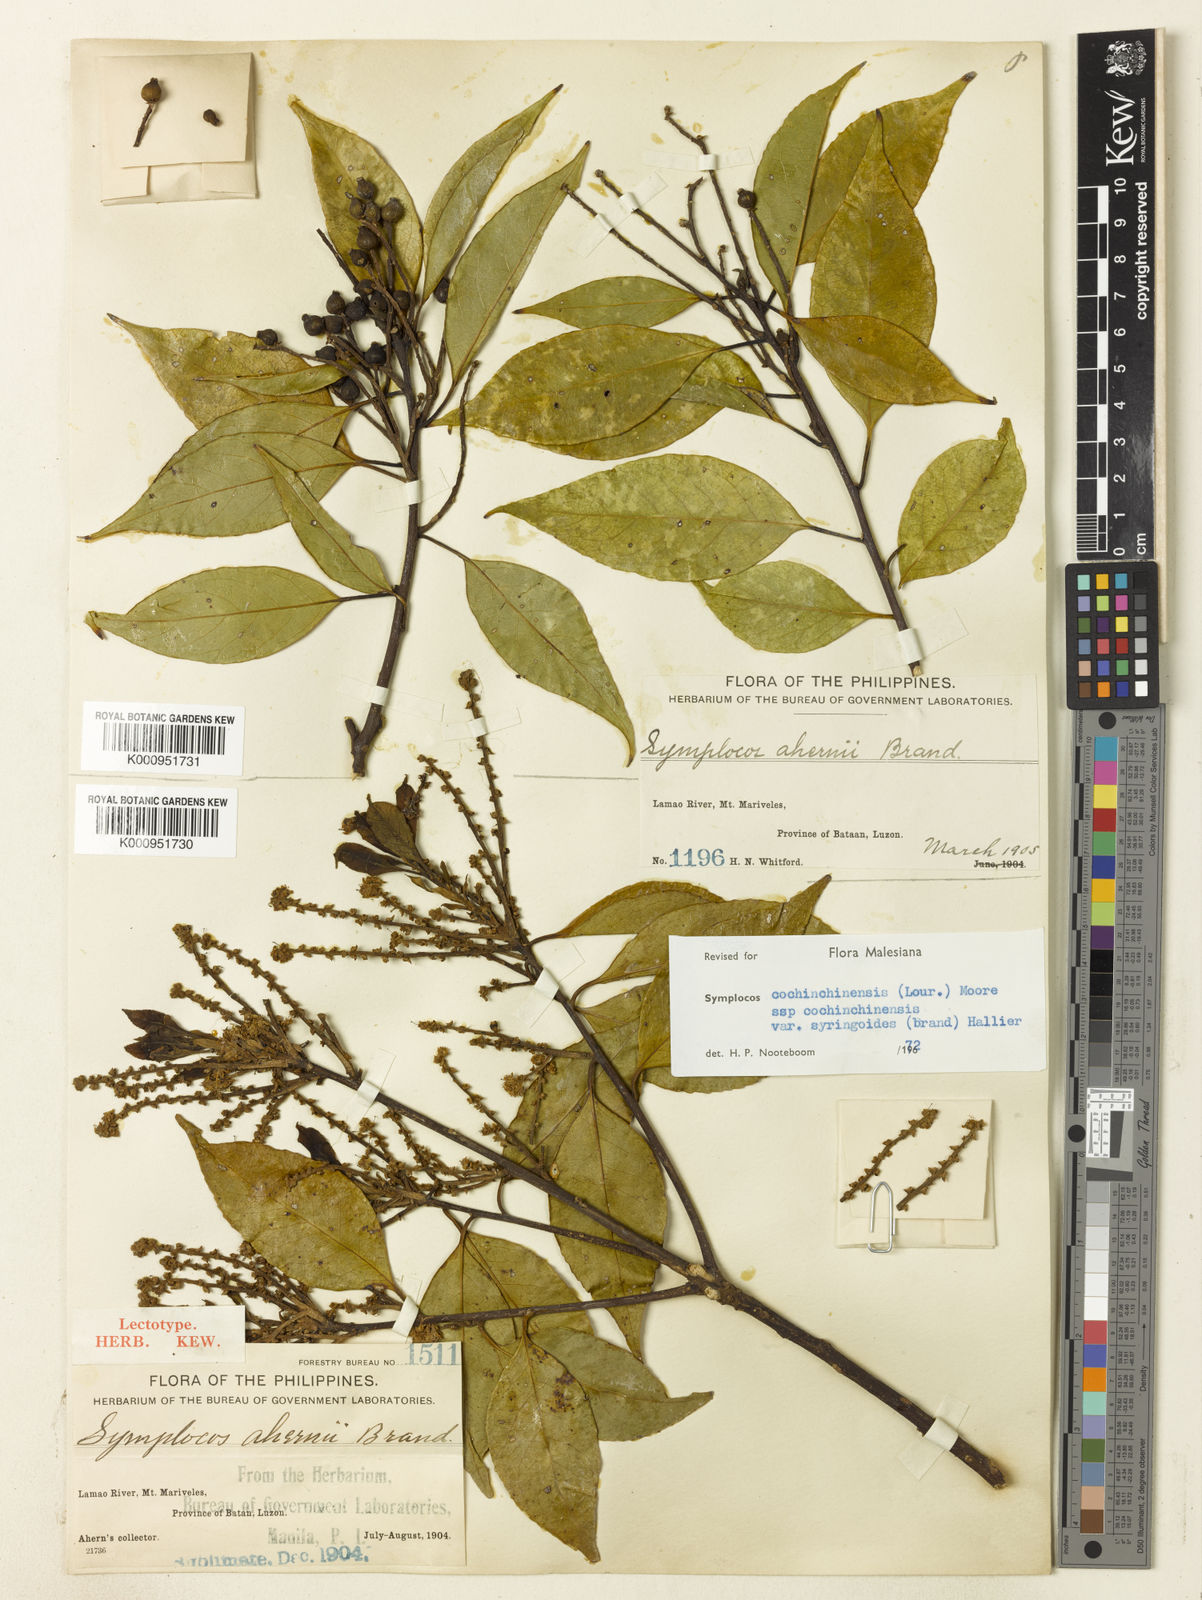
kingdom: Plantae
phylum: Tracheophyta
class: Magnoliopsida
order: Ericales
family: Symplocaceae
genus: Symplocos
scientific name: Symplocos cochinchinensis
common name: Buff hazelwood
